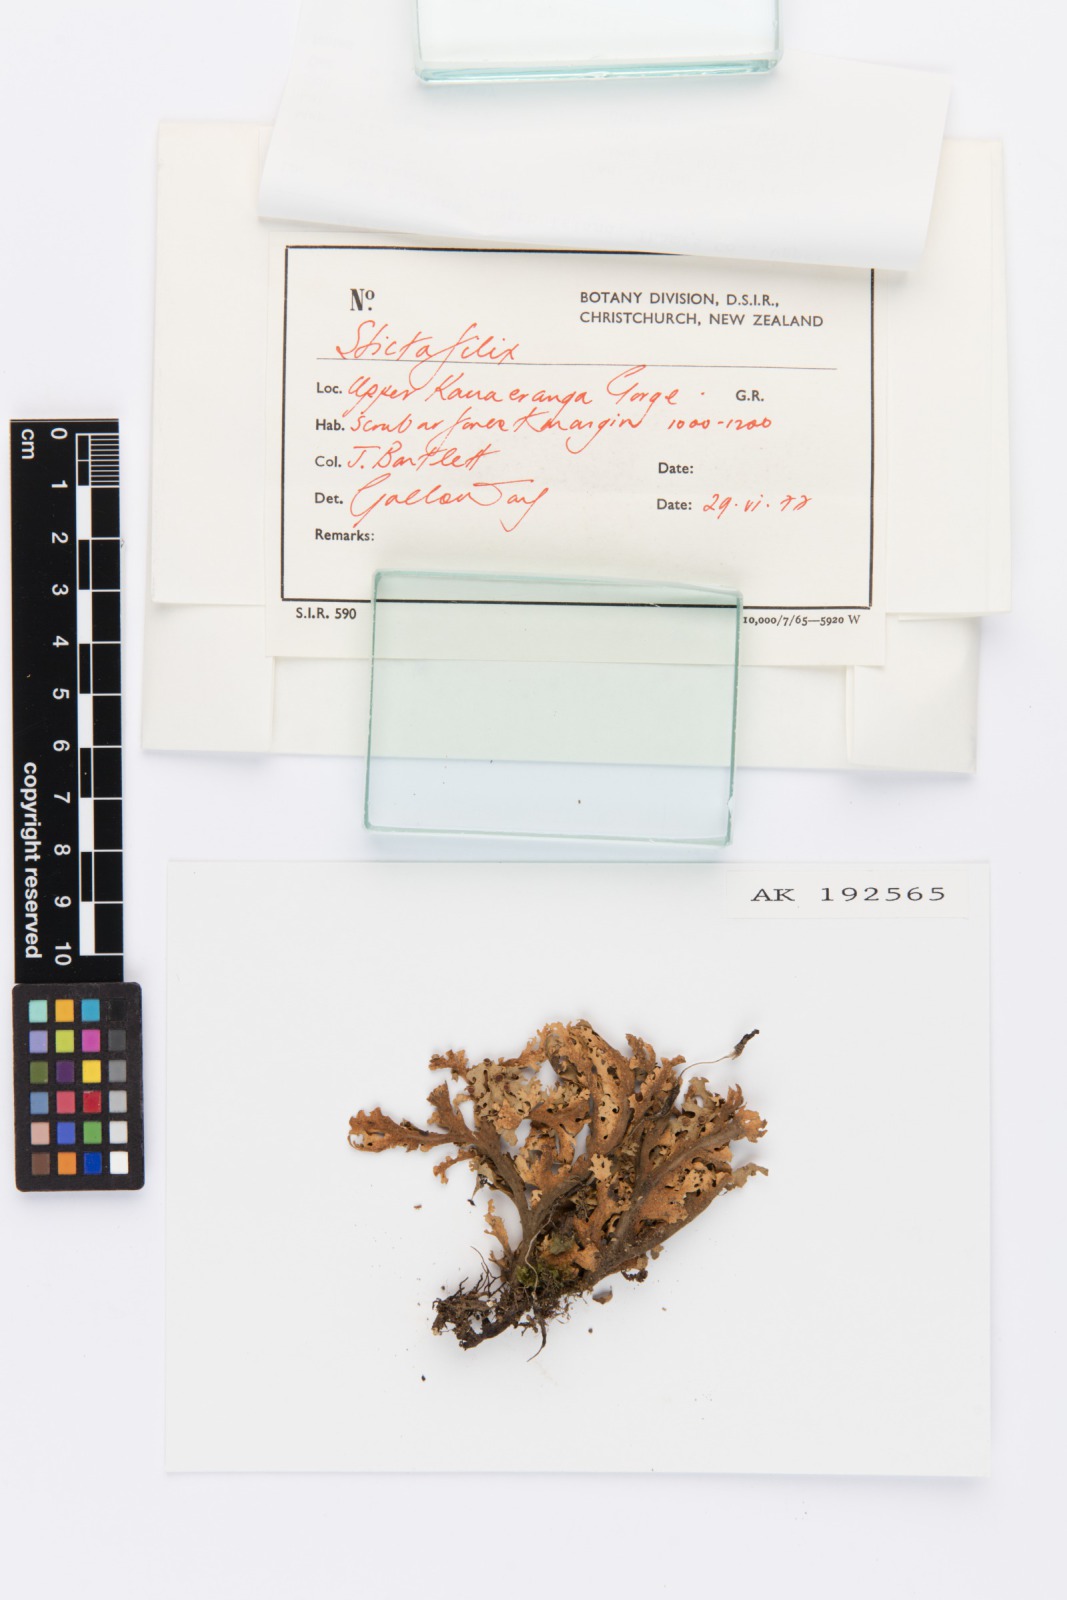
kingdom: Fungi
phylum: Ascomycota
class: Lecanoromycetes
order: Peltigerales
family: Lobariaceae
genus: Sticta
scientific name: Sticta filix
